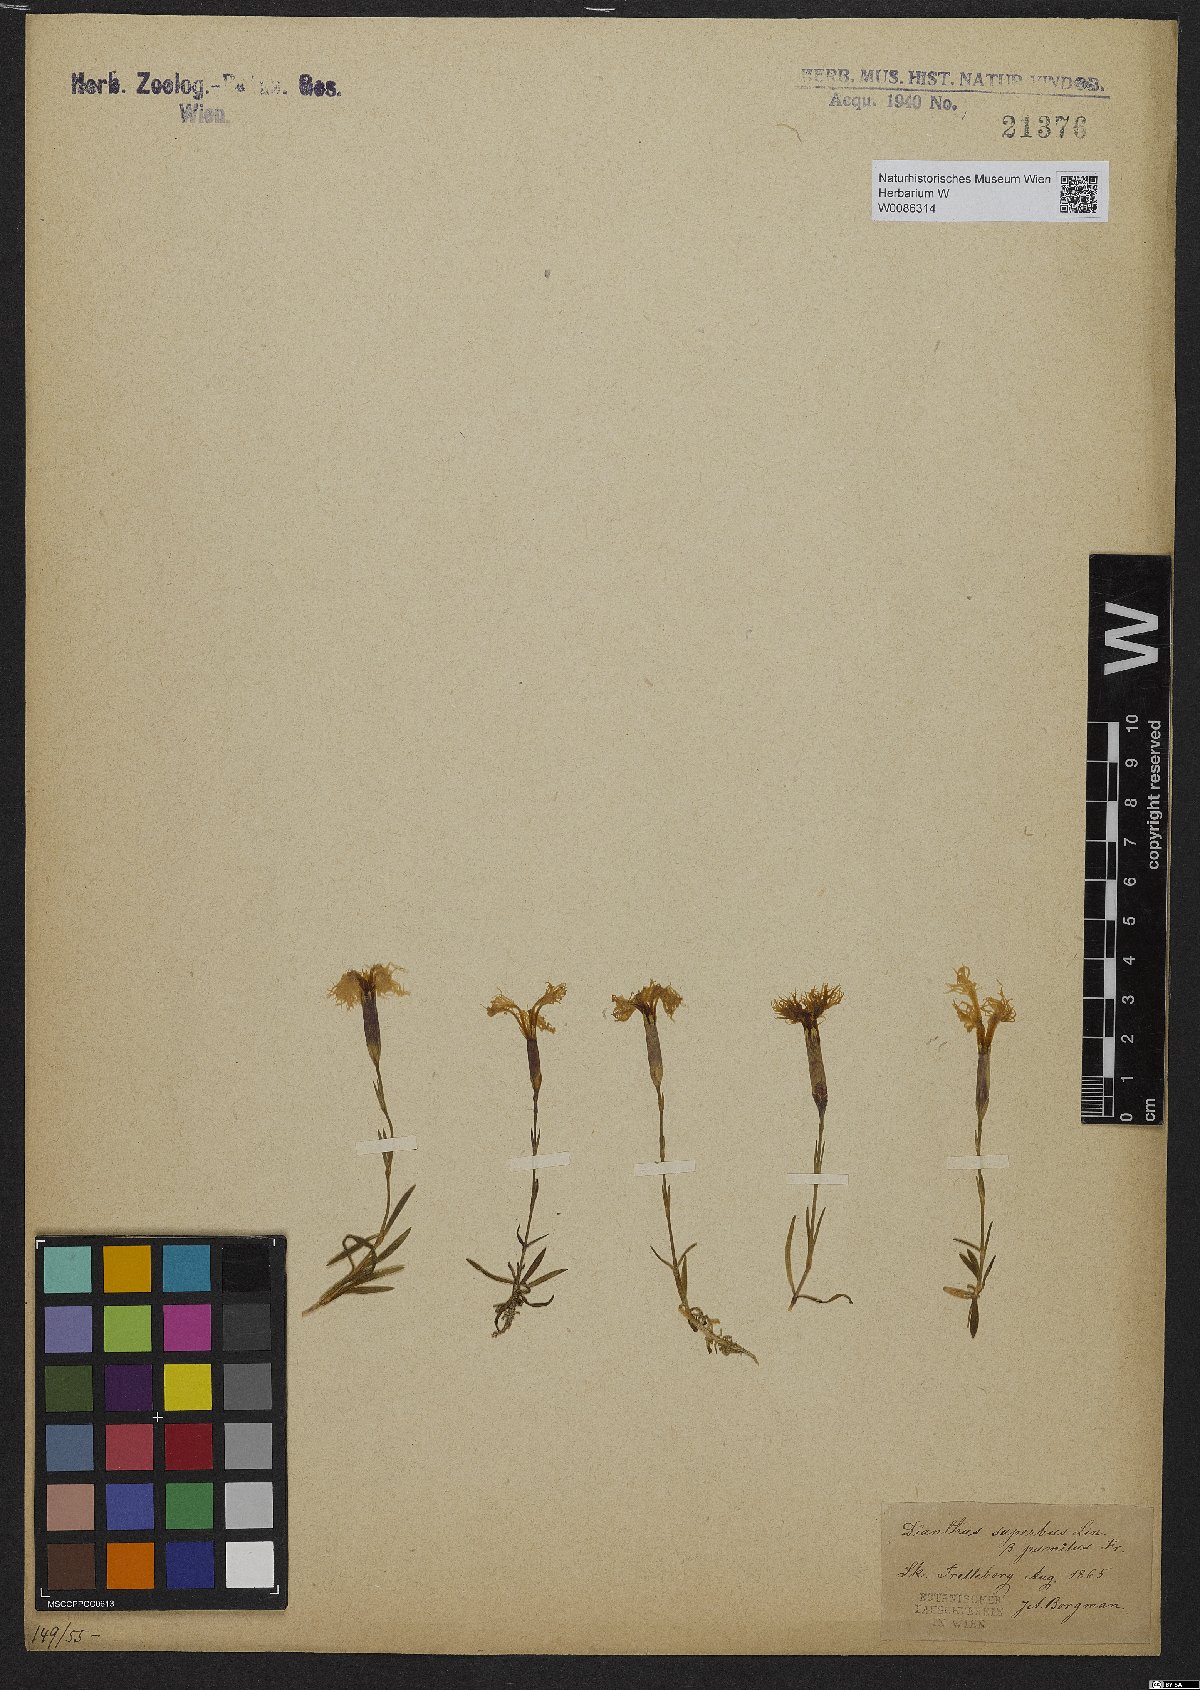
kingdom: Plantae
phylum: Tracheophyta
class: Magnoliopsida
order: Caryophyllales
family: Caryophyllaceae
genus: Dianthus
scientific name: Dianthus superbus
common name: Fringed pink
